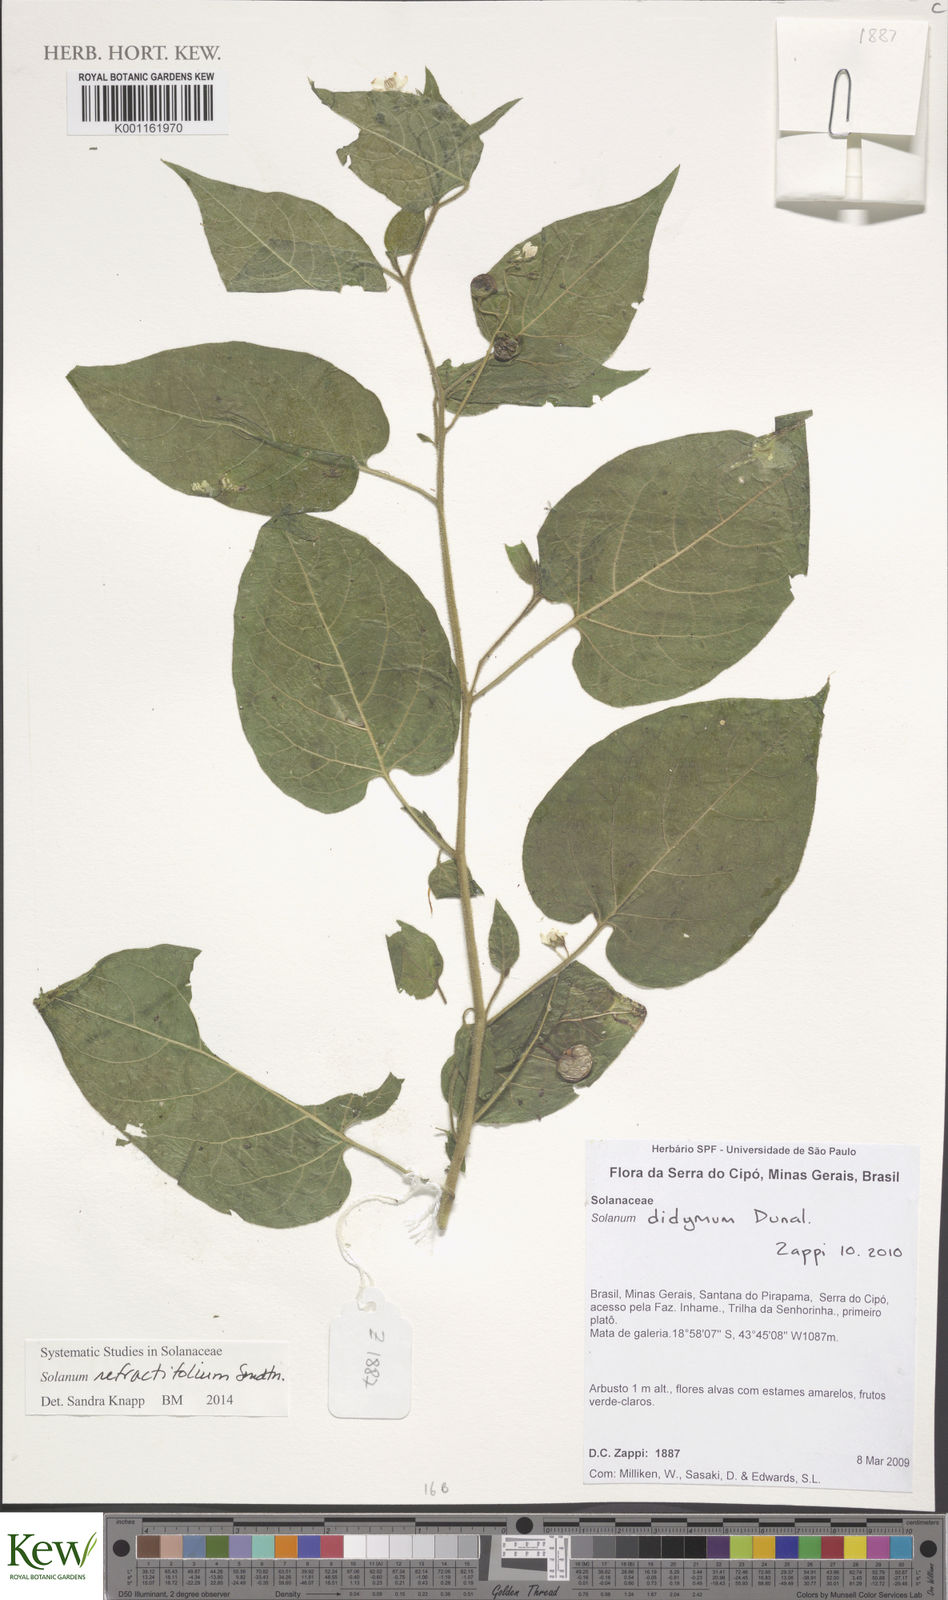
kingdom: Plantae
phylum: Tracheophyta
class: Magnoliopsida
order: Solanales
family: Solanaceae
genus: Solanum
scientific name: Solanum refractifolium
